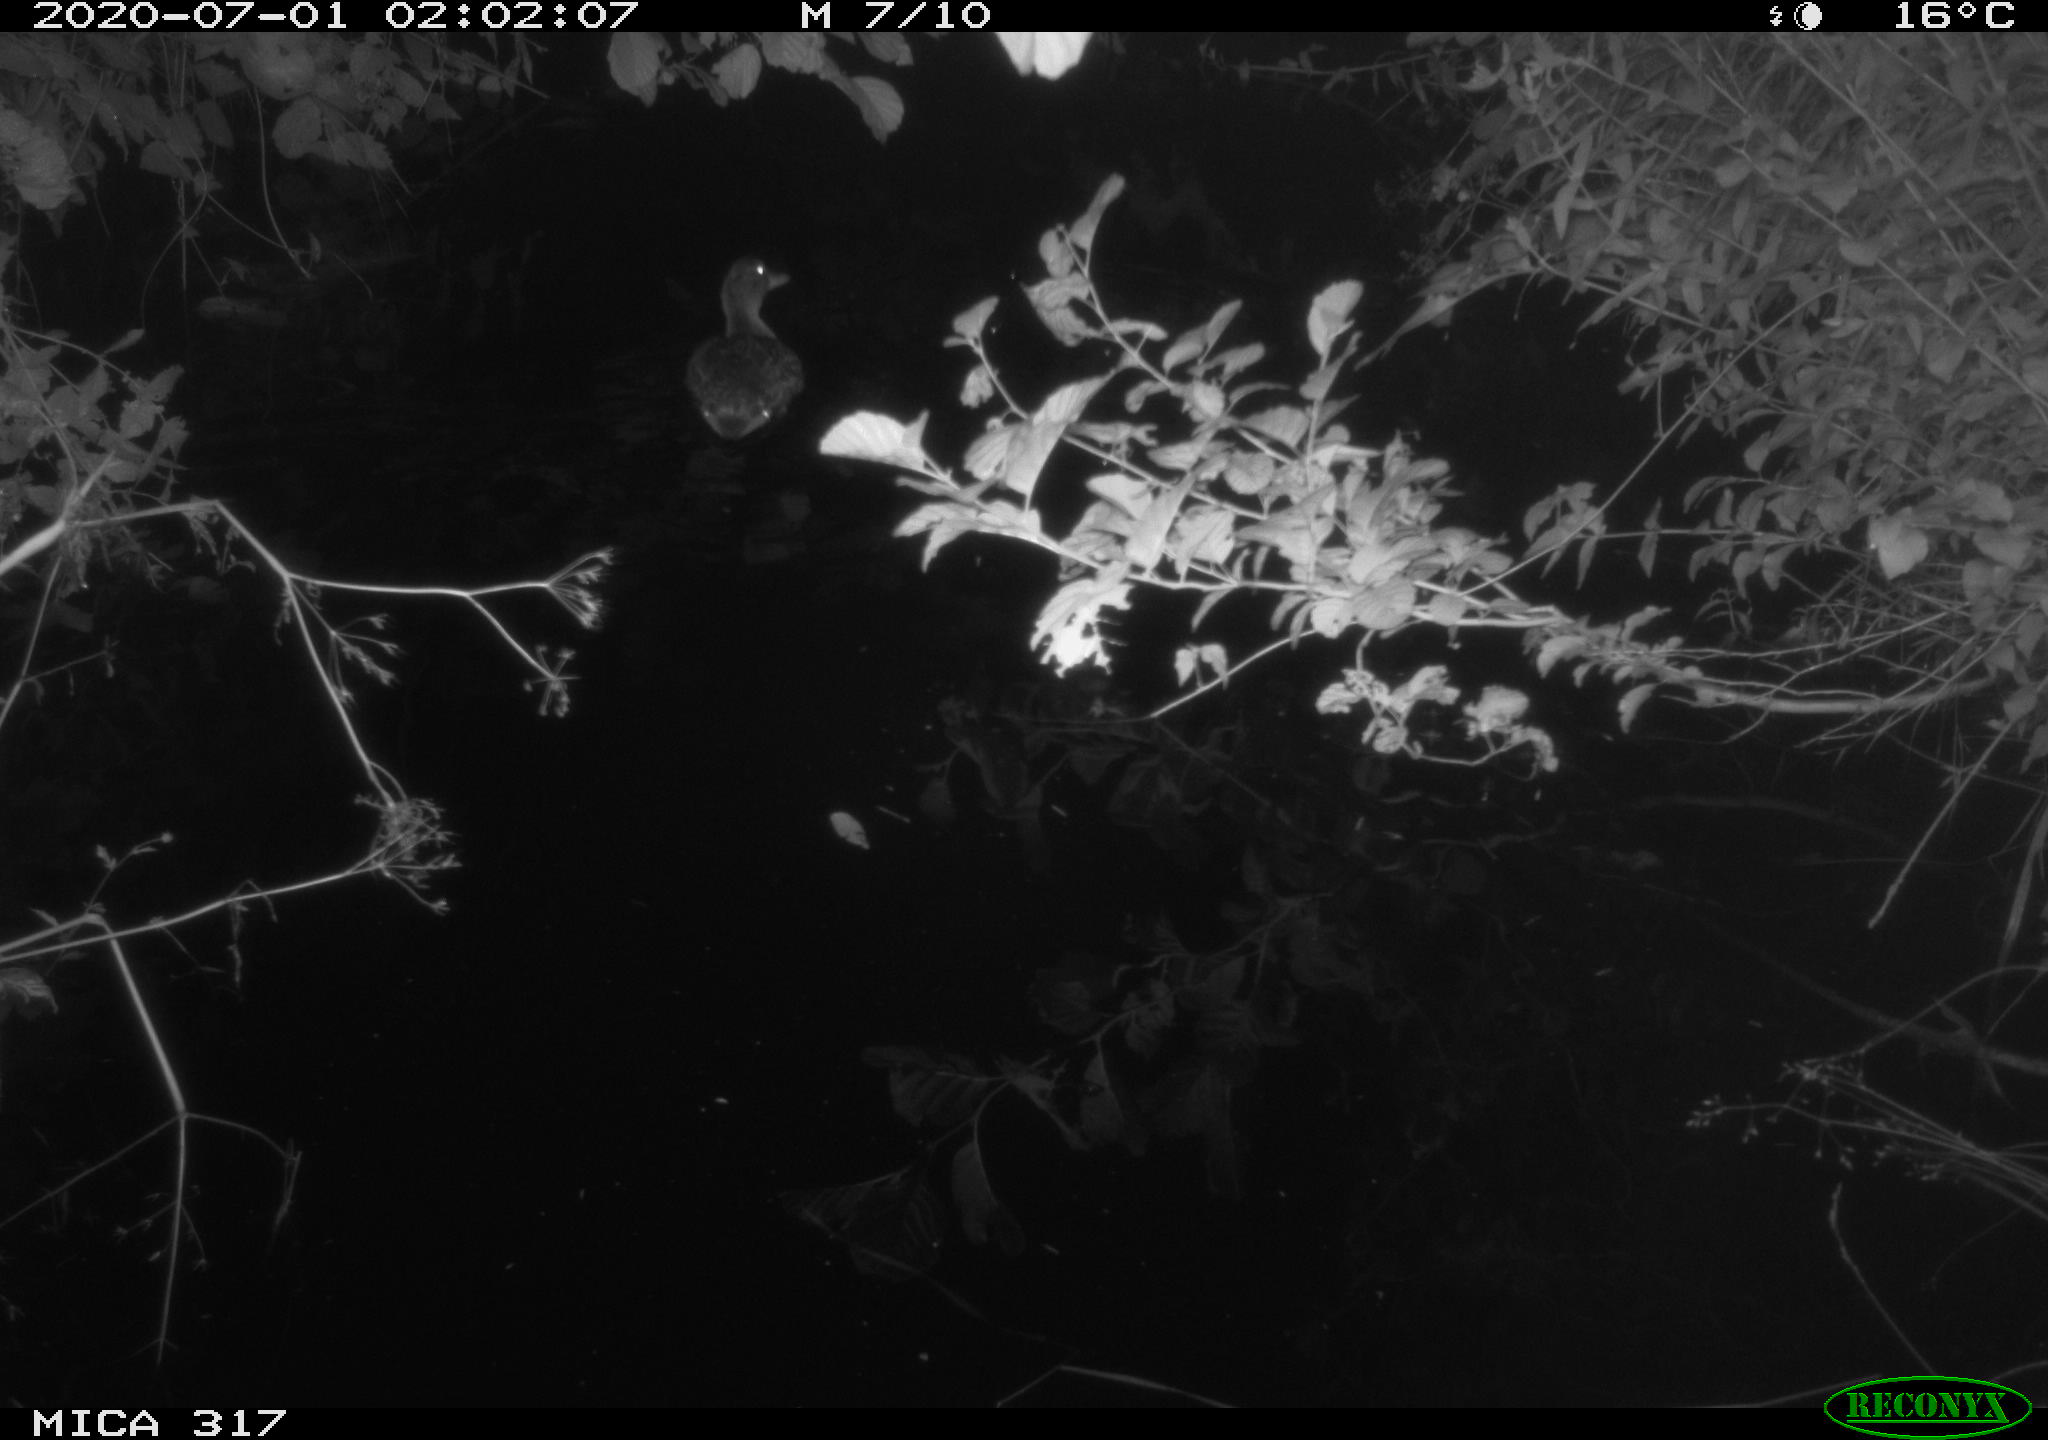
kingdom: Animalia
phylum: Chordata
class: Aves
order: Anseriformes
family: Anatidae
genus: Anas
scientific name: Anas platyrhynchos
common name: Mallard
